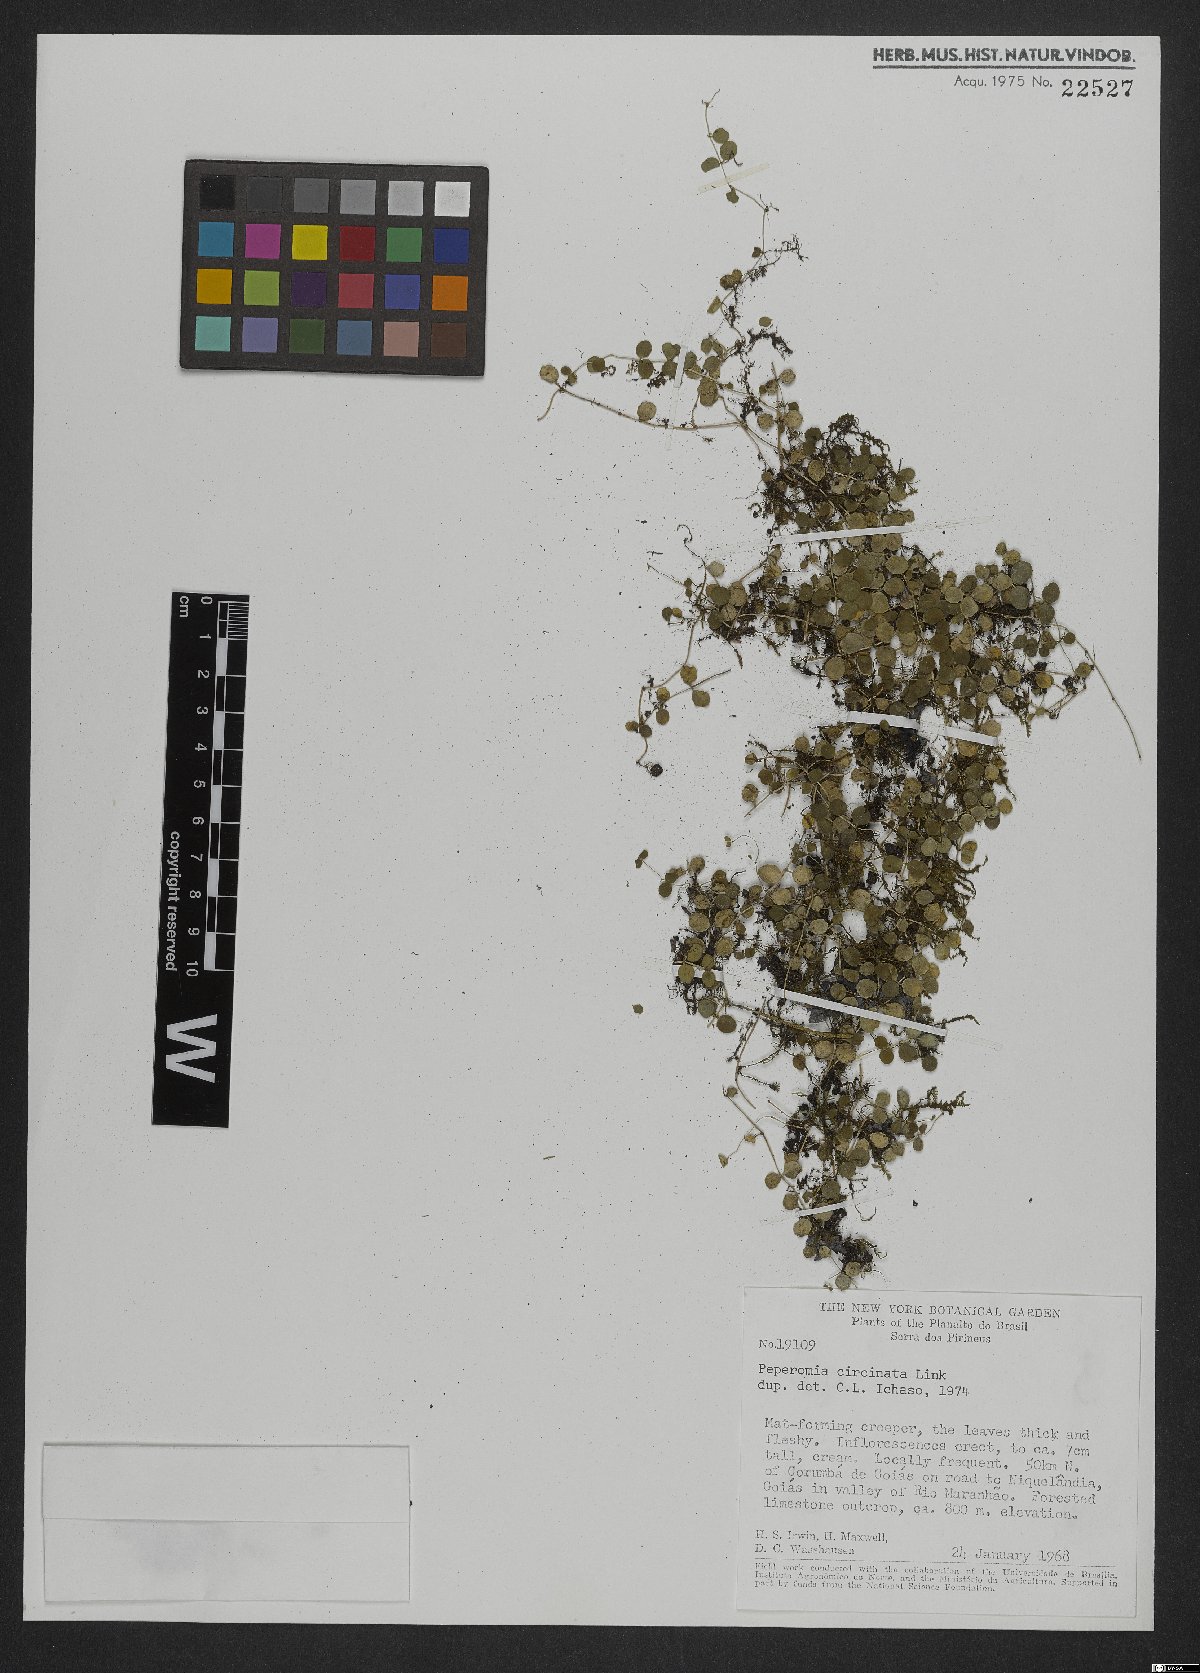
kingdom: Plantae
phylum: Tracheophyta
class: Magnoliopsida
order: Piperales
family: Piperaceae
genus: Peperomia
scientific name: Peperomia circinnata
